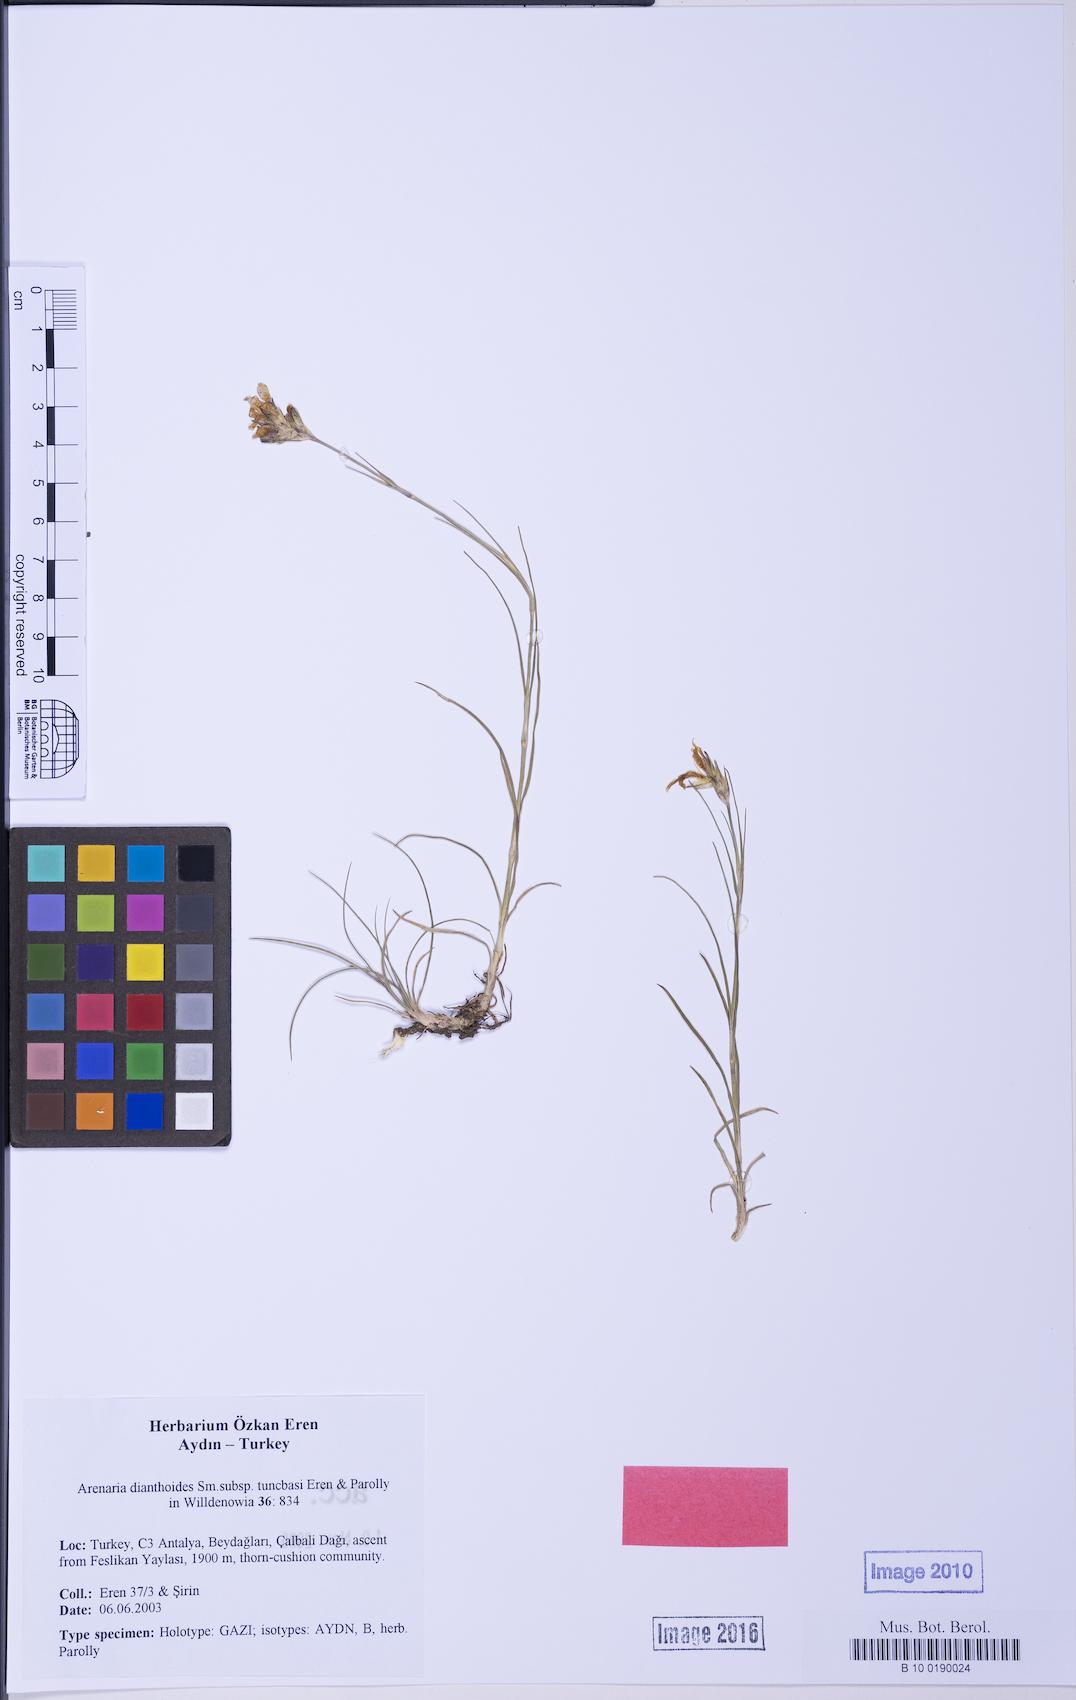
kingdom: Plantae
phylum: Tracheophyta
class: Magnoliopsida
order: Caryophyllales
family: Caryophyllaceae
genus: Eremogone
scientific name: Eremogone dianthoides
